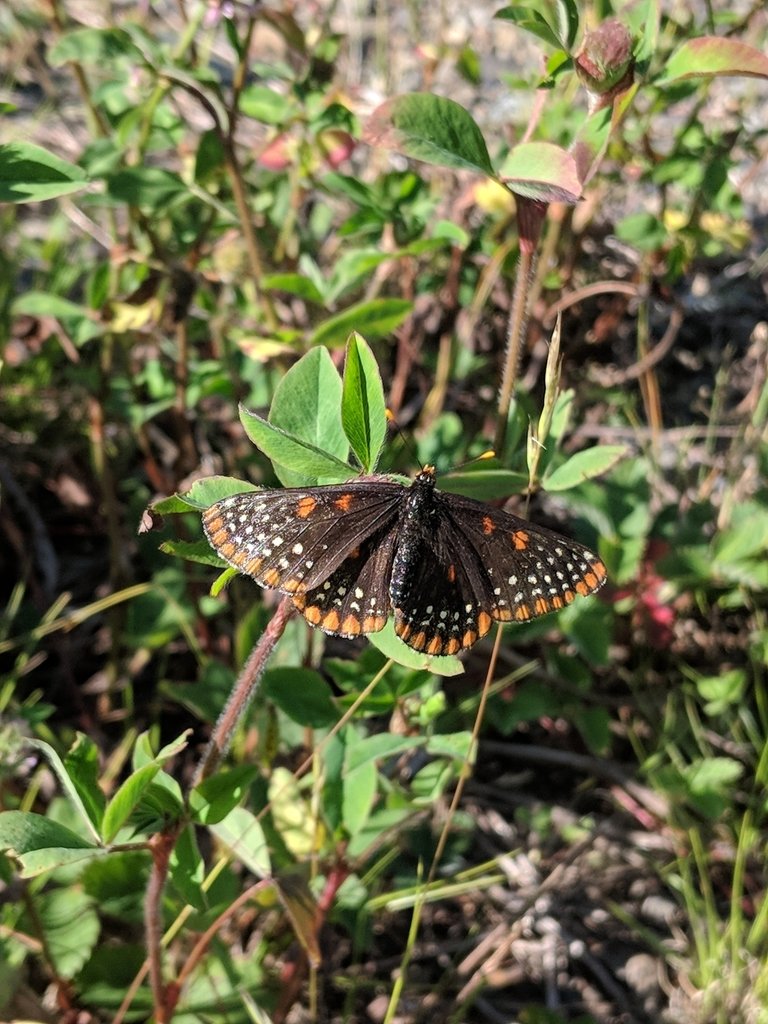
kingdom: Animalia
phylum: Arthropoda
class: Insecta
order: Lepidoptera
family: Nymphalidae
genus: Euphydryas
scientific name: Euphydryas phaeton
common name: Baltimore Checkerspot
